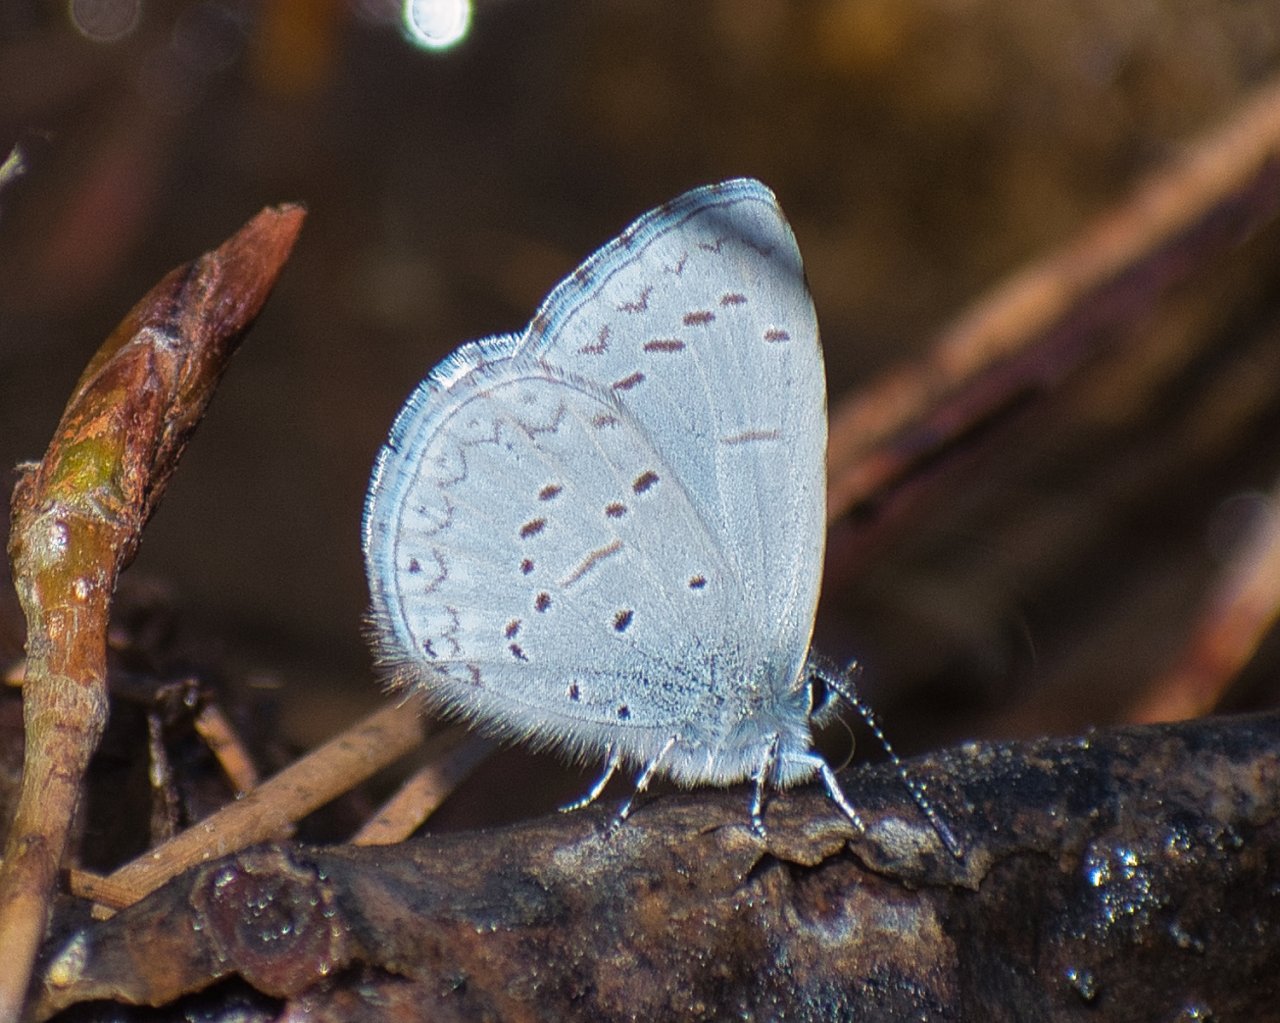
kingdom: Animalia
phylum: Arthropoda
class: Insecta
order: Lepidoptera
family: Lycaenidae
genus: Celastrina
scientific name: Celastrina ladon
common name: Echo Azure
